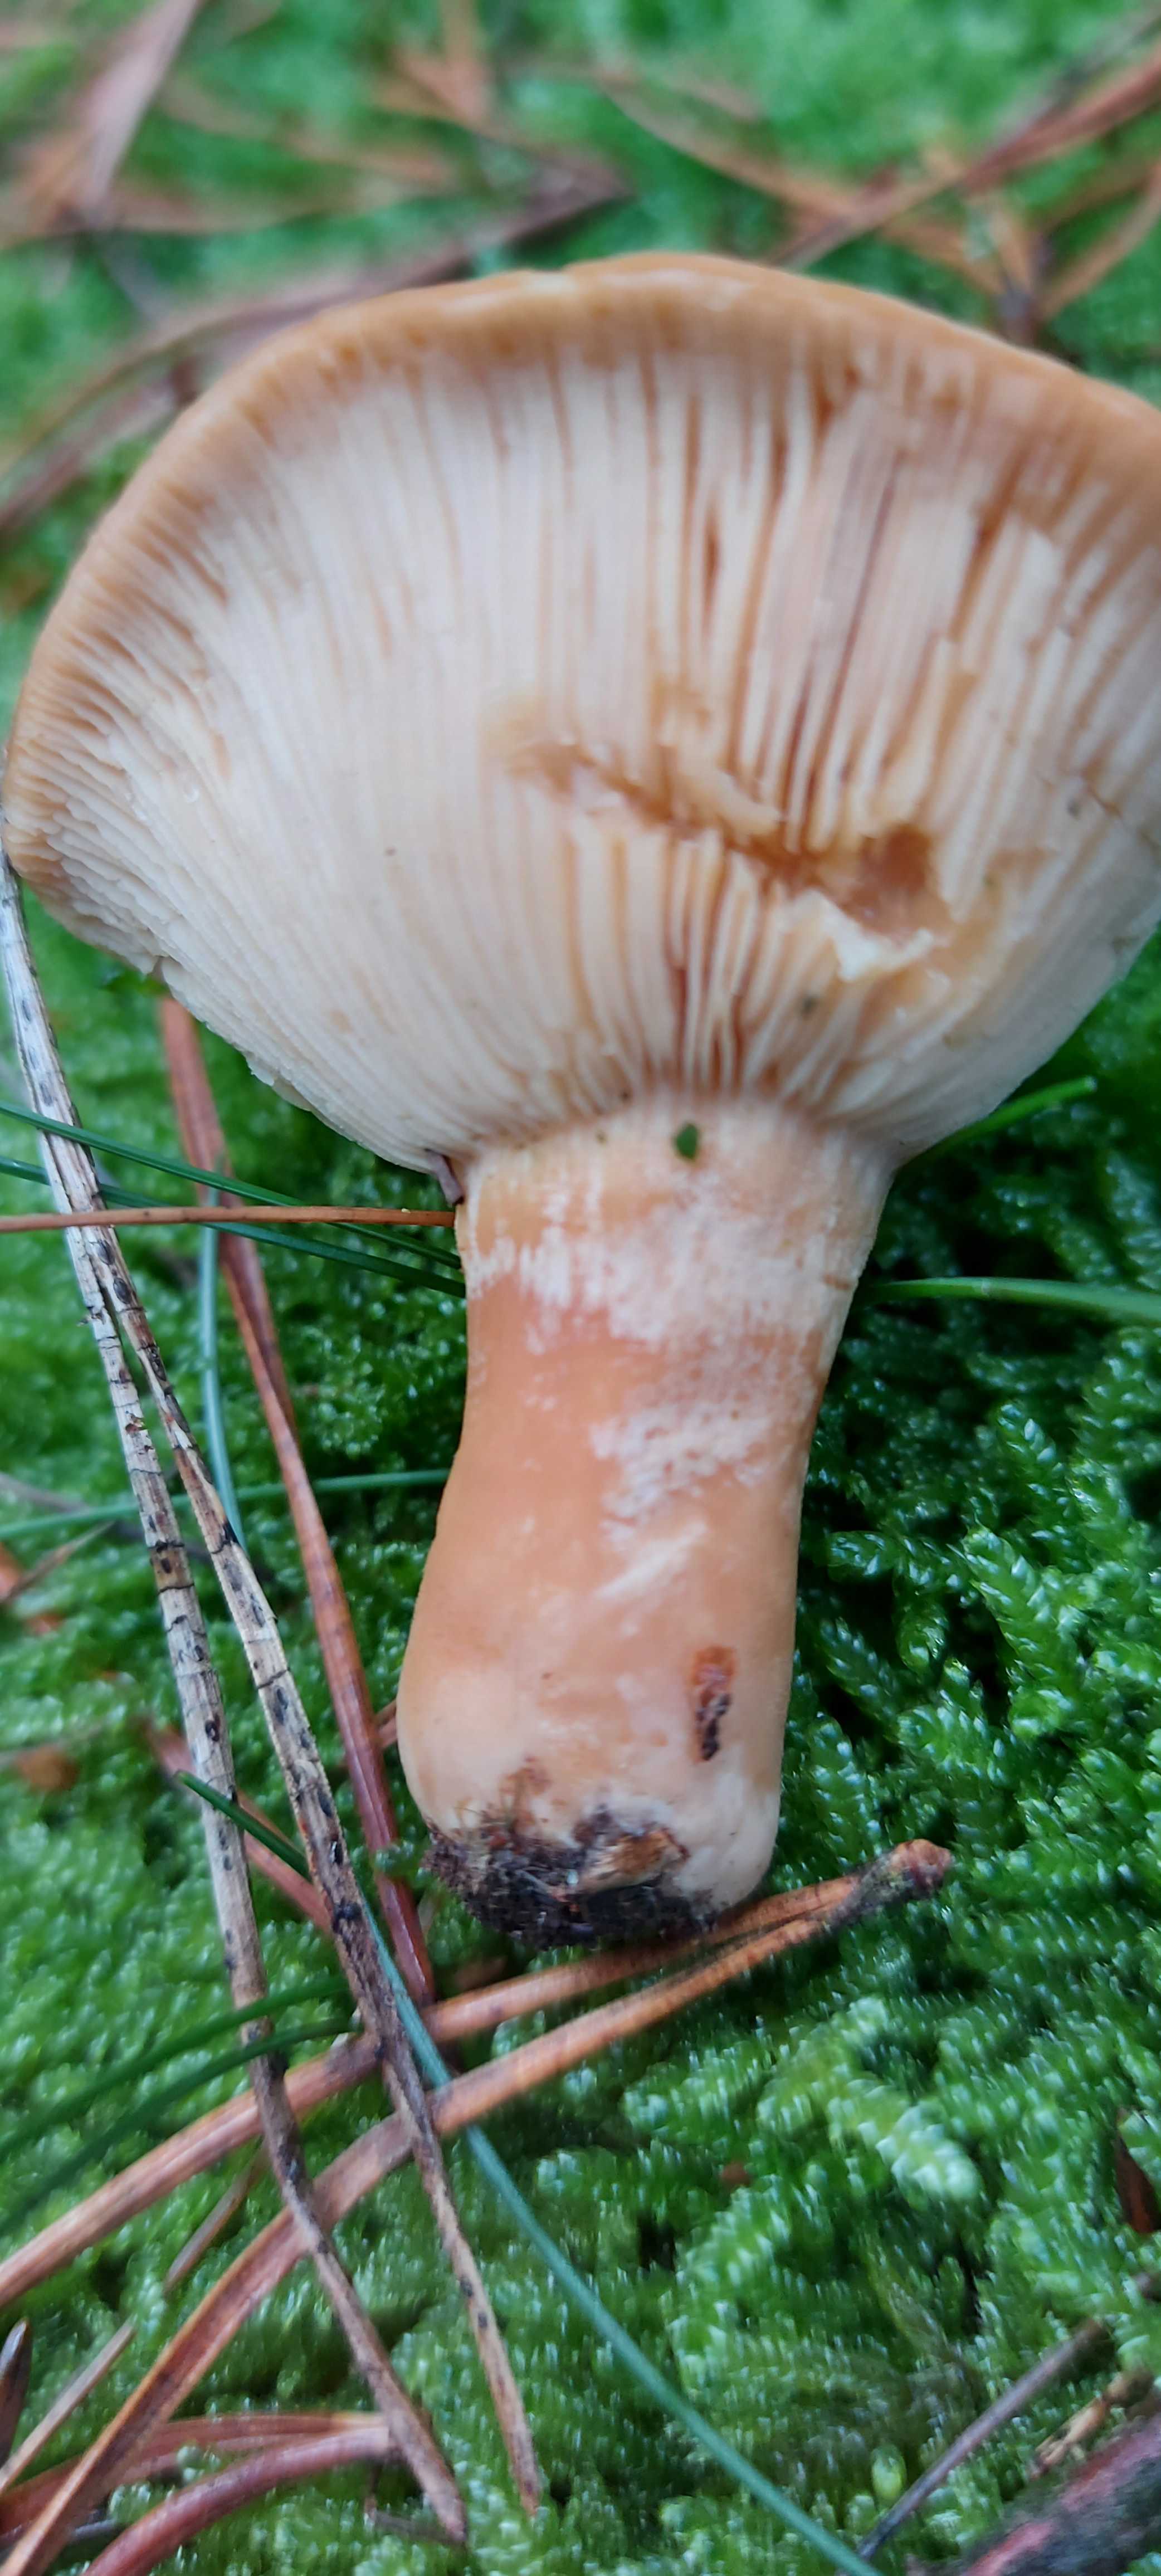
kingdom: Fungi
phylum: Basidiomycota
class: Agaricomycetes
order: Russulales
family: Russulaceae
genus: Lactarius
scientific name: Lactarius
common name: mælkehat
